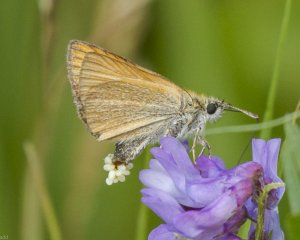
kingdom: Animalia
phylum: Arthropoda
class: Insecta
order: Lepidoptera
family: Hesperiidae
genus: Thymelicus
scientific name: Thymelicus lineola
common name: European Skipper
